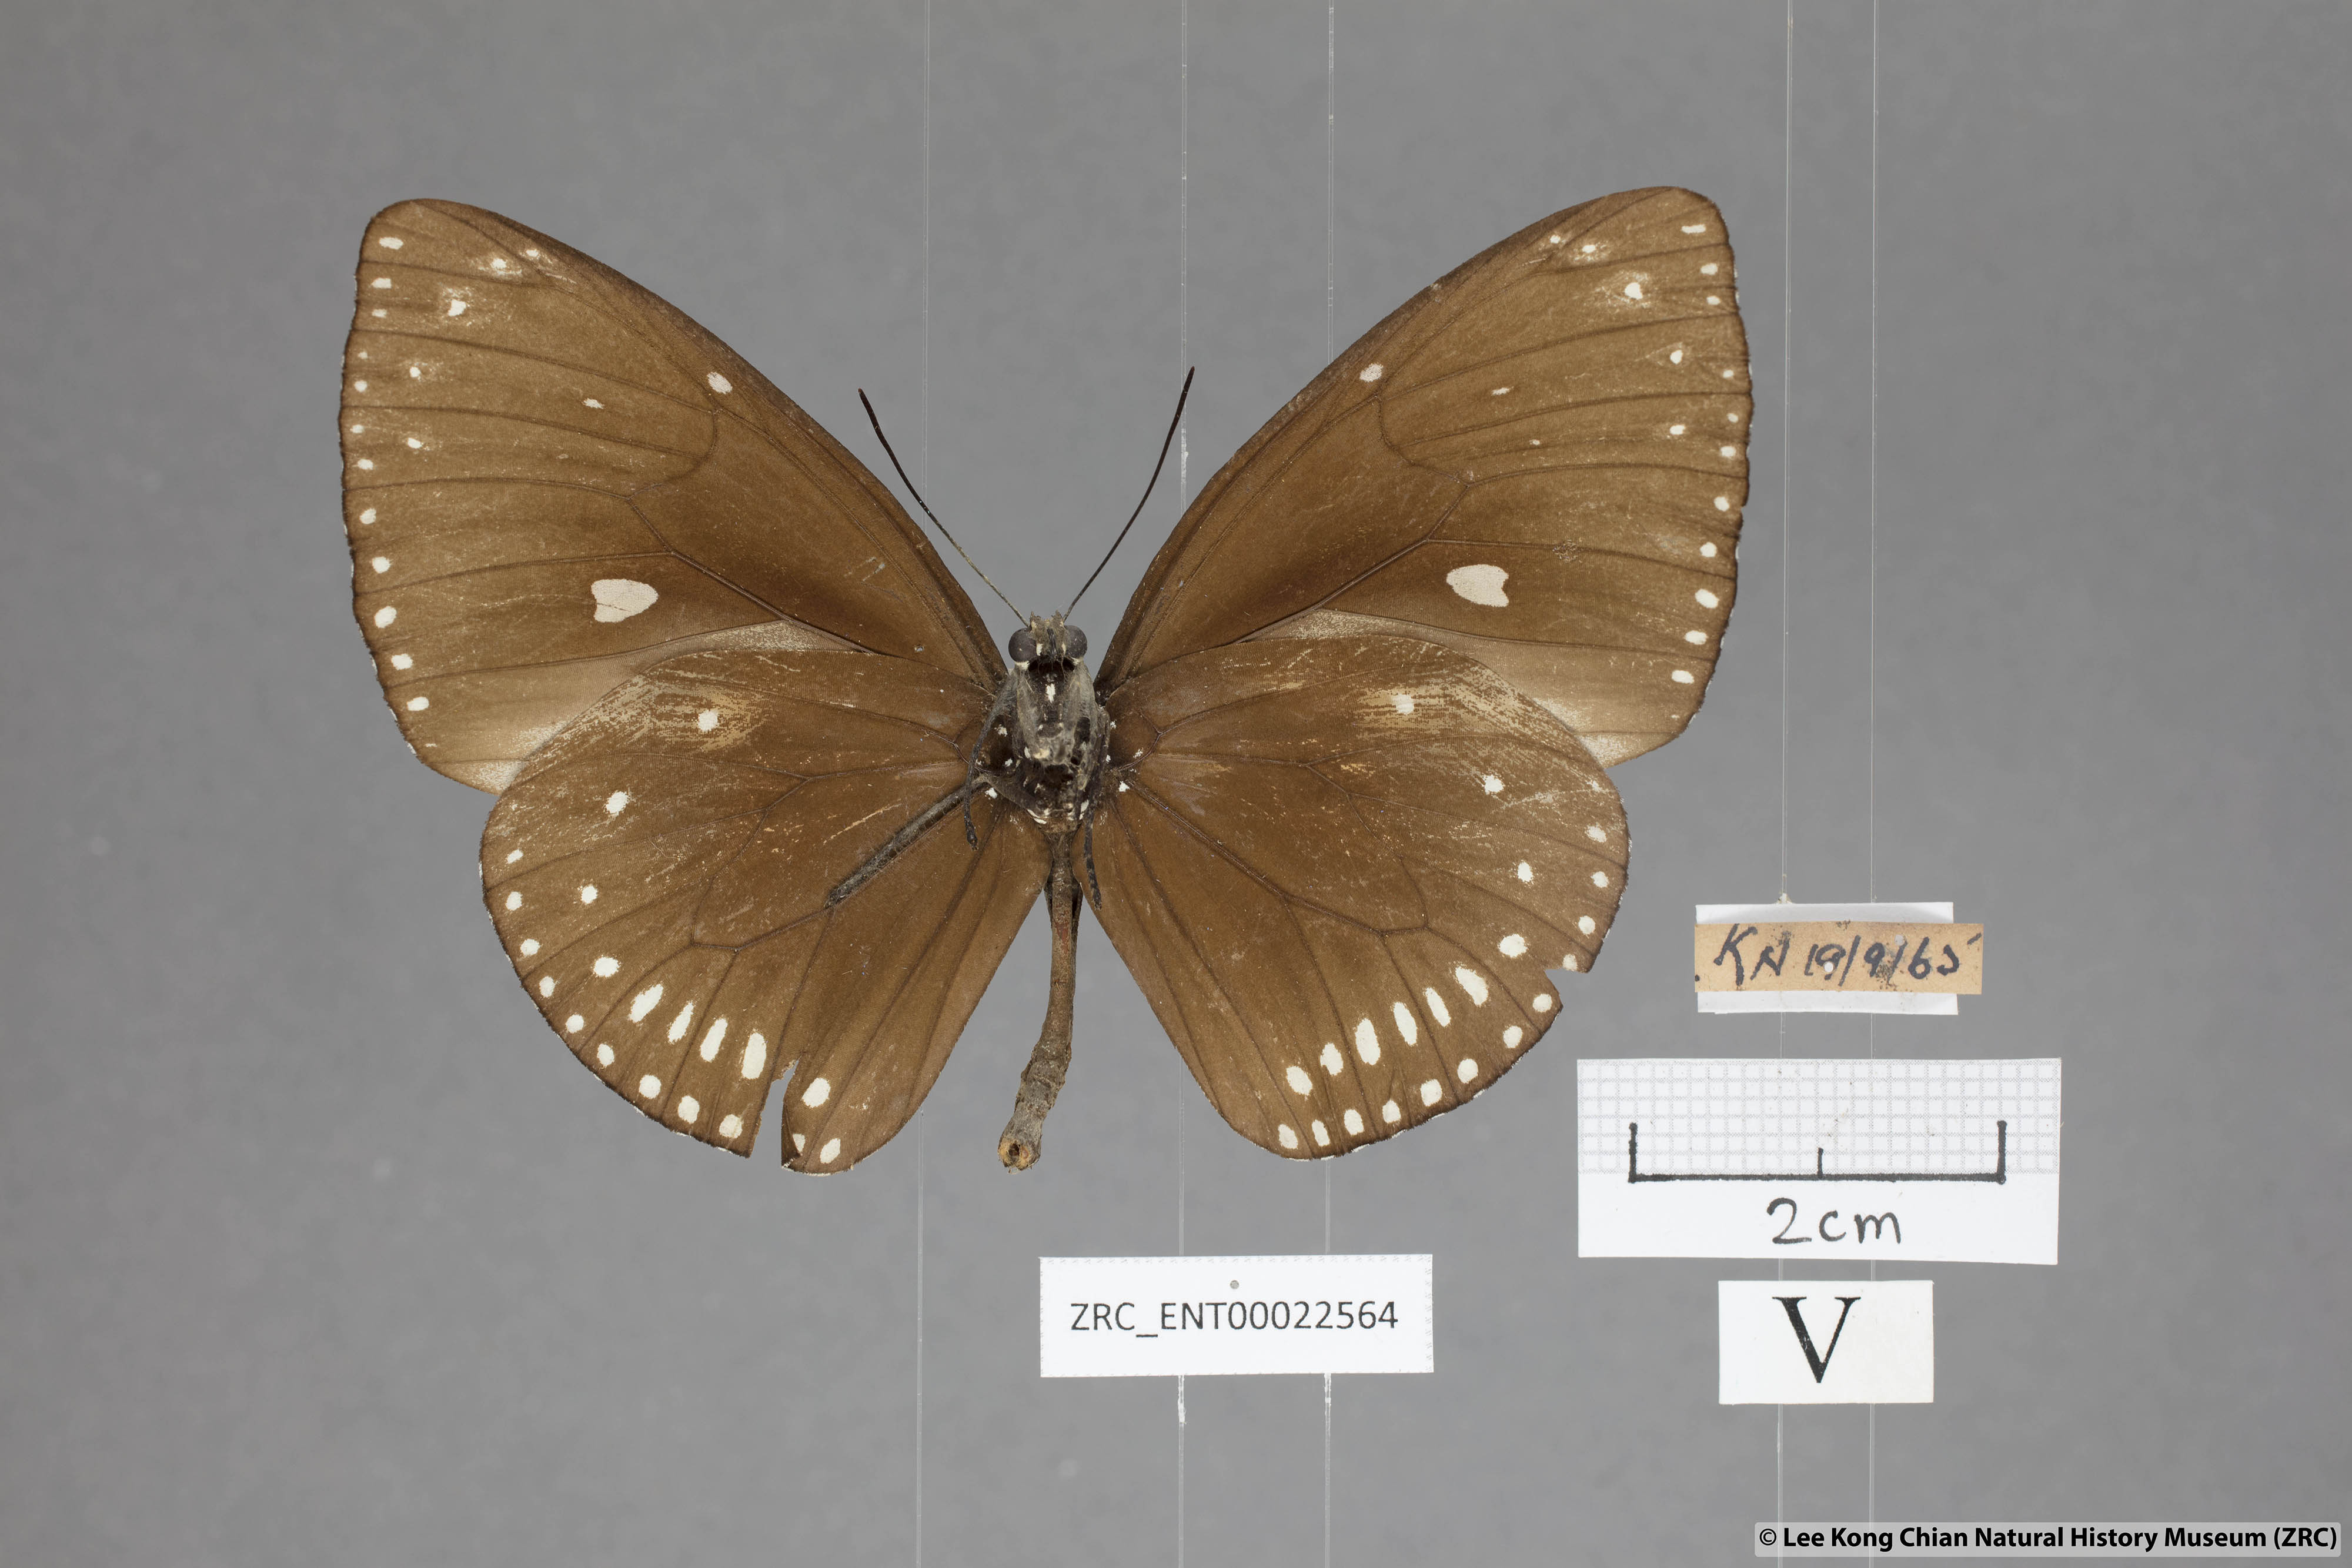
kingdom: Animalia
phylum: Arthropoda
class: Insecta
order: Lepidoptera
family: Nymphalidae
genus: Euploea
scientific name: Euploea klugii
